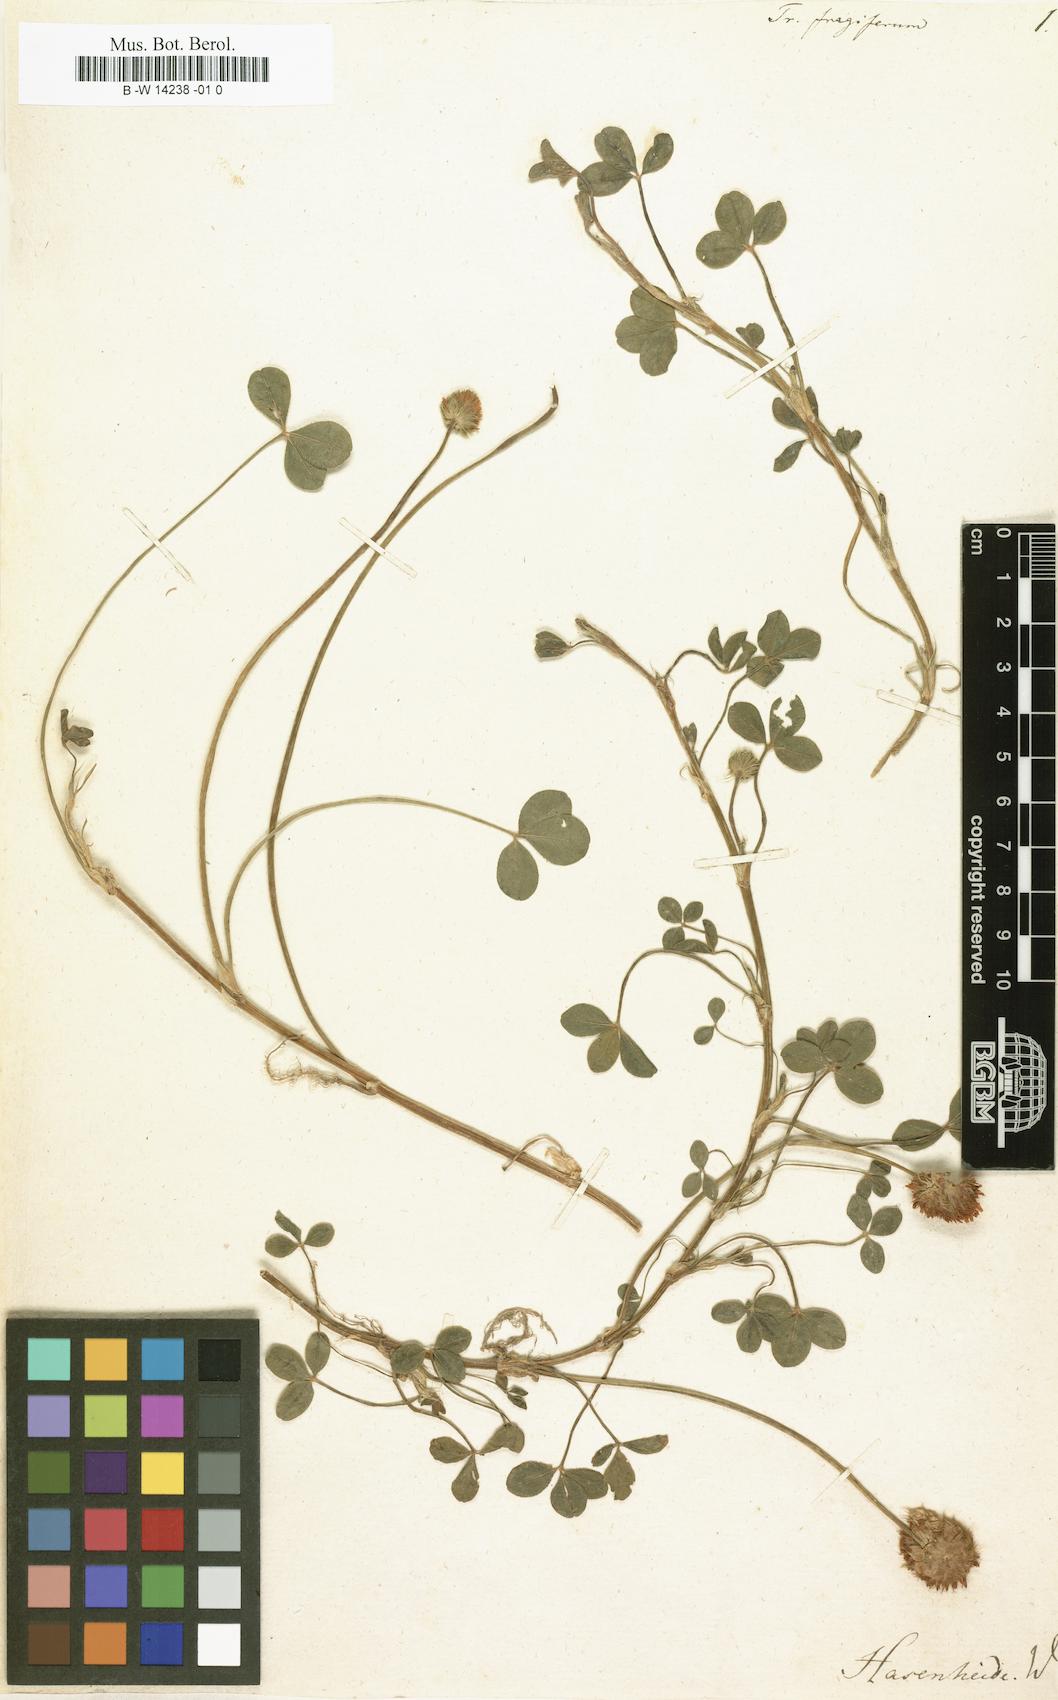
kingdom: Plantae
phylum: Tracheophyta
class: Magnoliopsida
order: Fabales
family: Fabaceae
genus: Trifolium
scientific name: Trifolium fragiferum
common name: Strawberry clover
